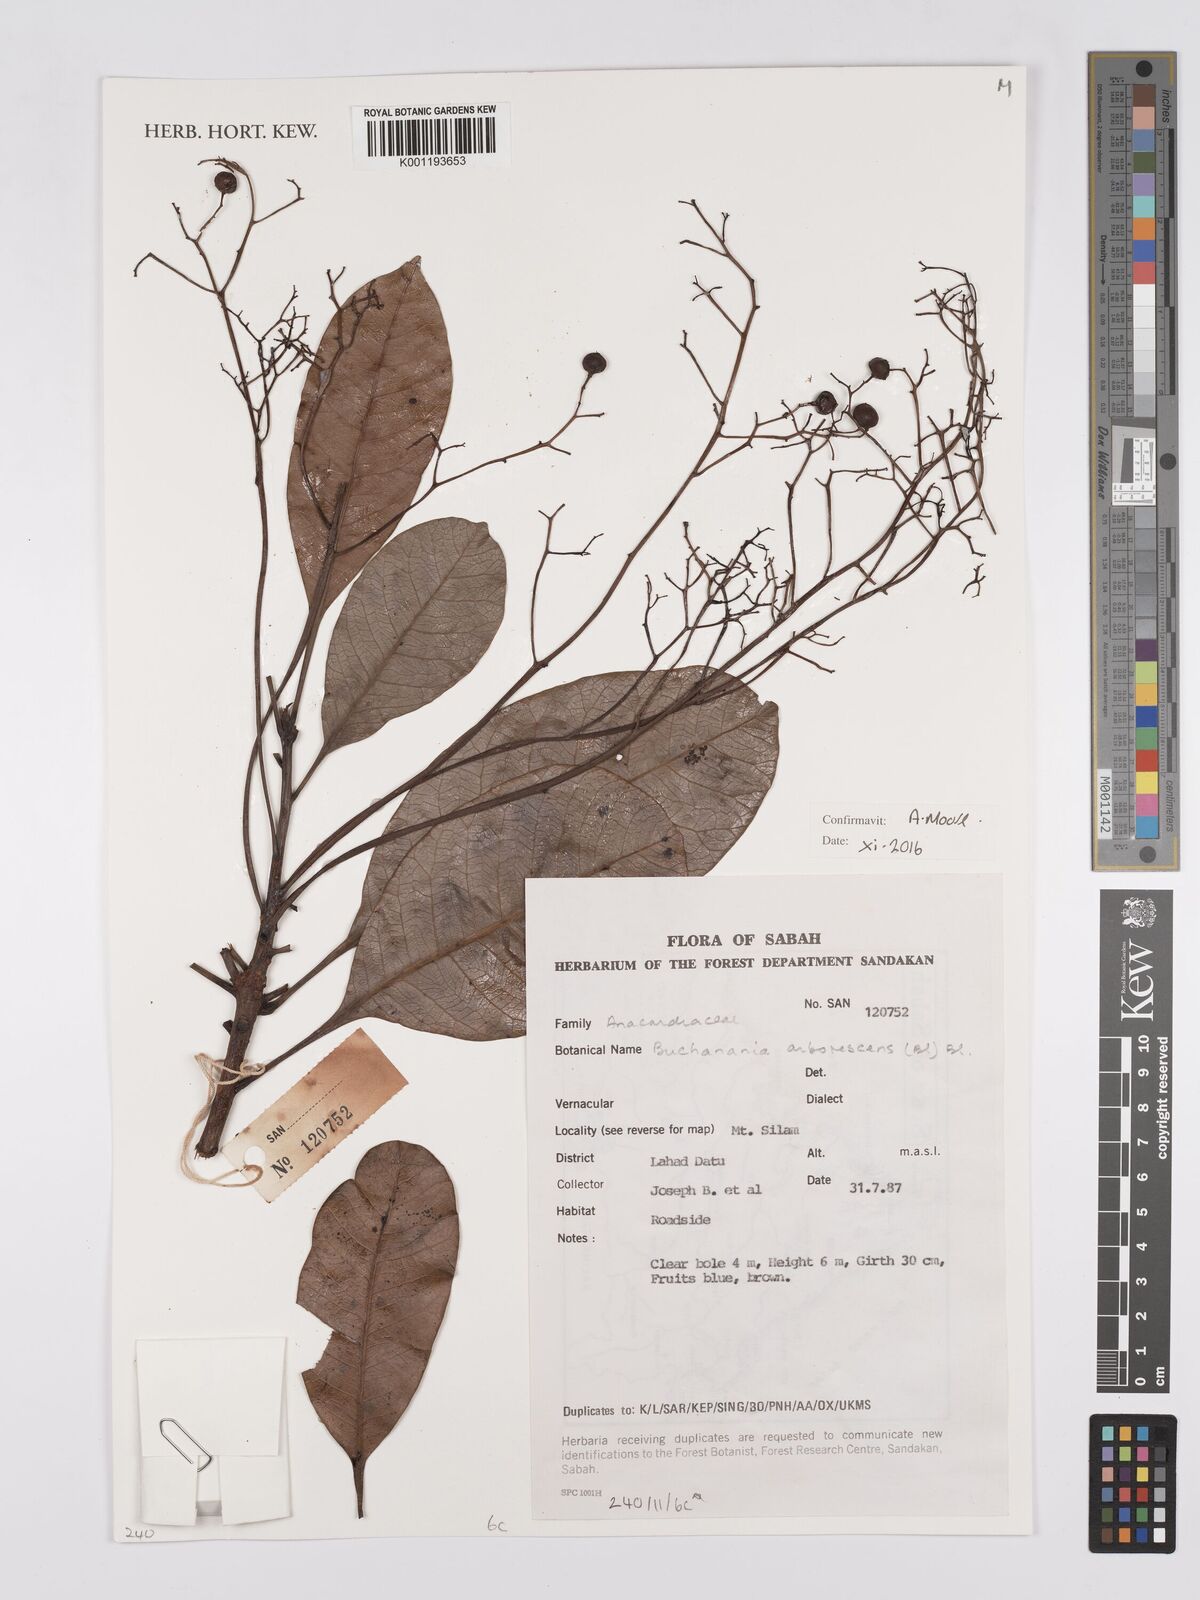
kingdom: Plantae
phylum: Tracheophyta
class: Magnoliopsida
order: Sapindales
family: Anacardiaceae
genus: Buchanania
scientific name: Buchanania arborescens
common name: Sparrow’s mango
